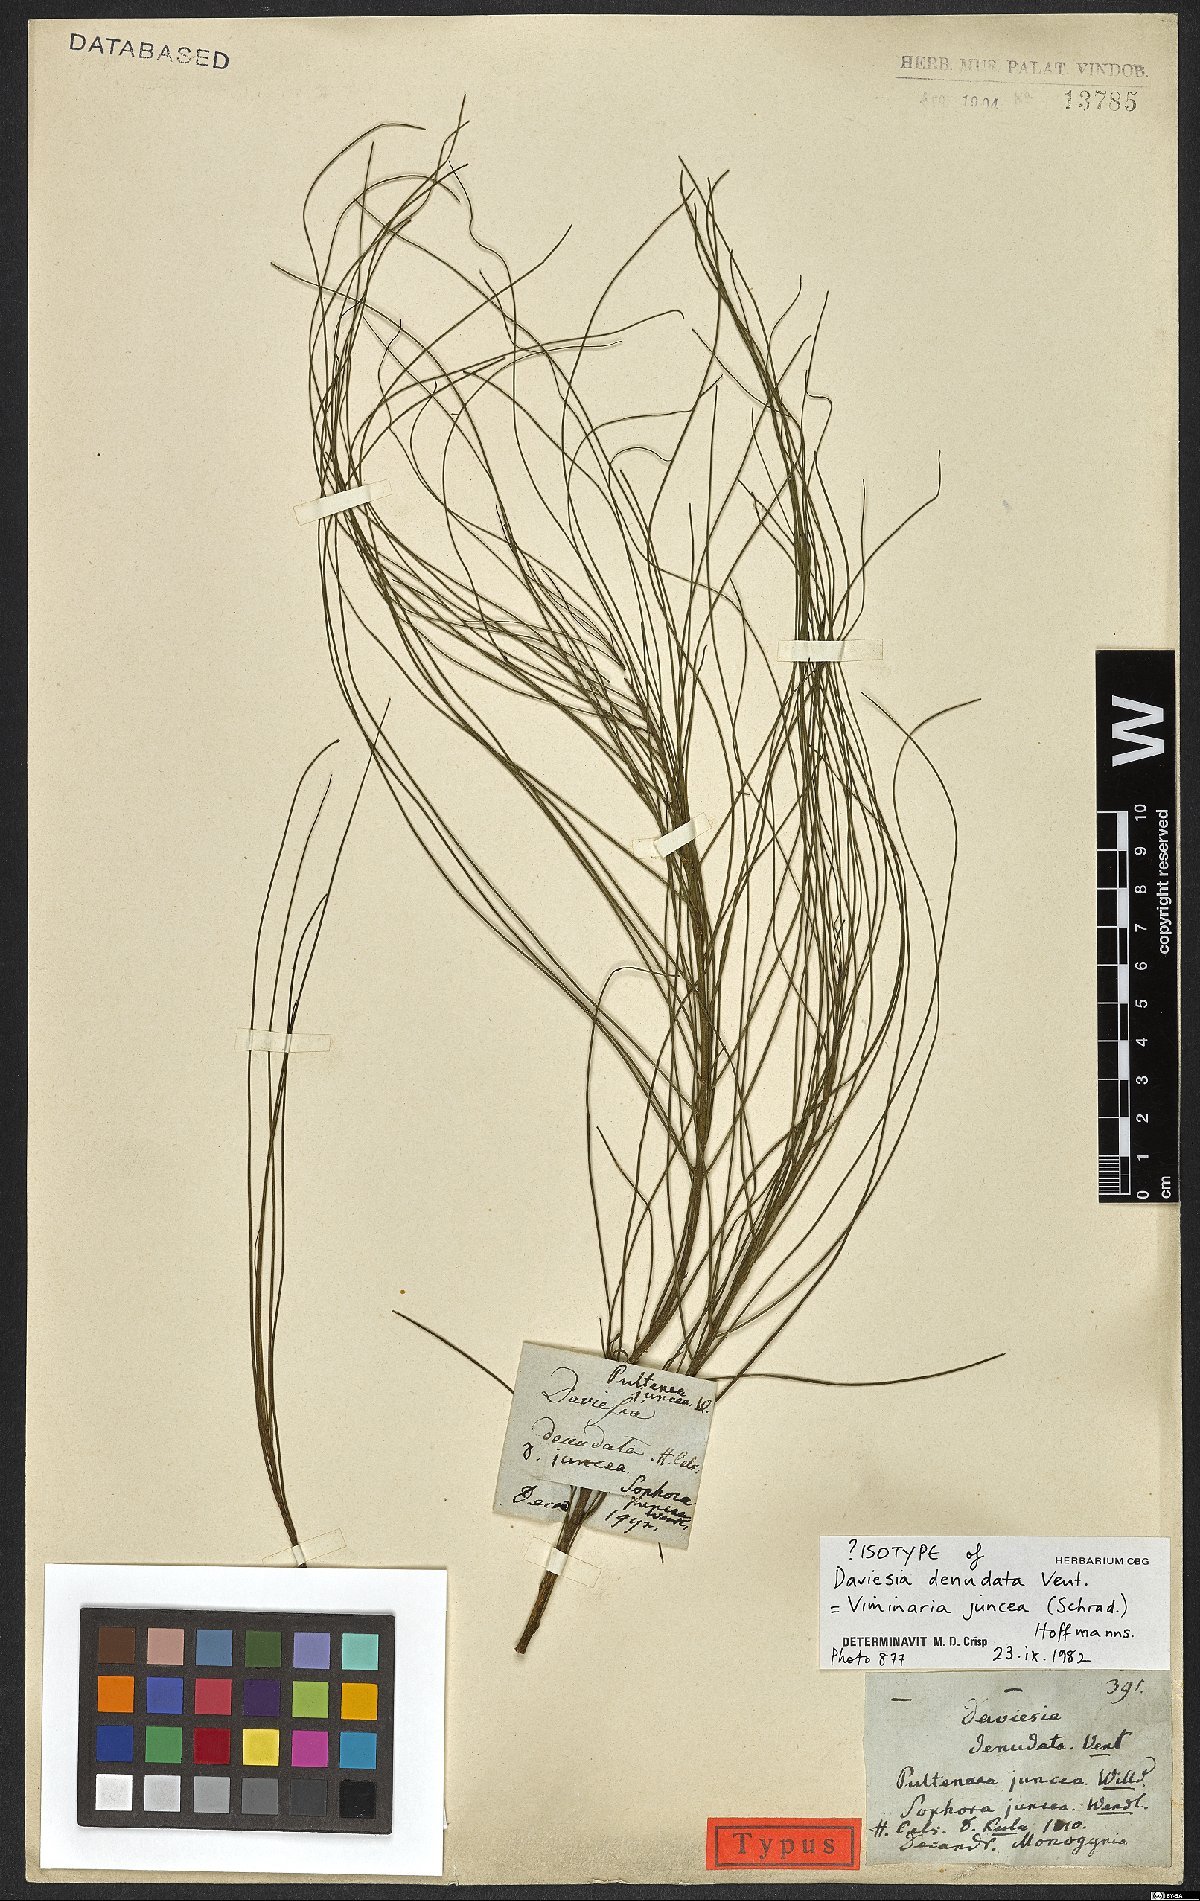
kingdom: Plantae
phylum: Tracheophyta
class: Magnoliopsida
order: Fabales
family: Fabaceae
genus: Viminaria
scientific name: Viminaria juncea
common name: Golden spray
